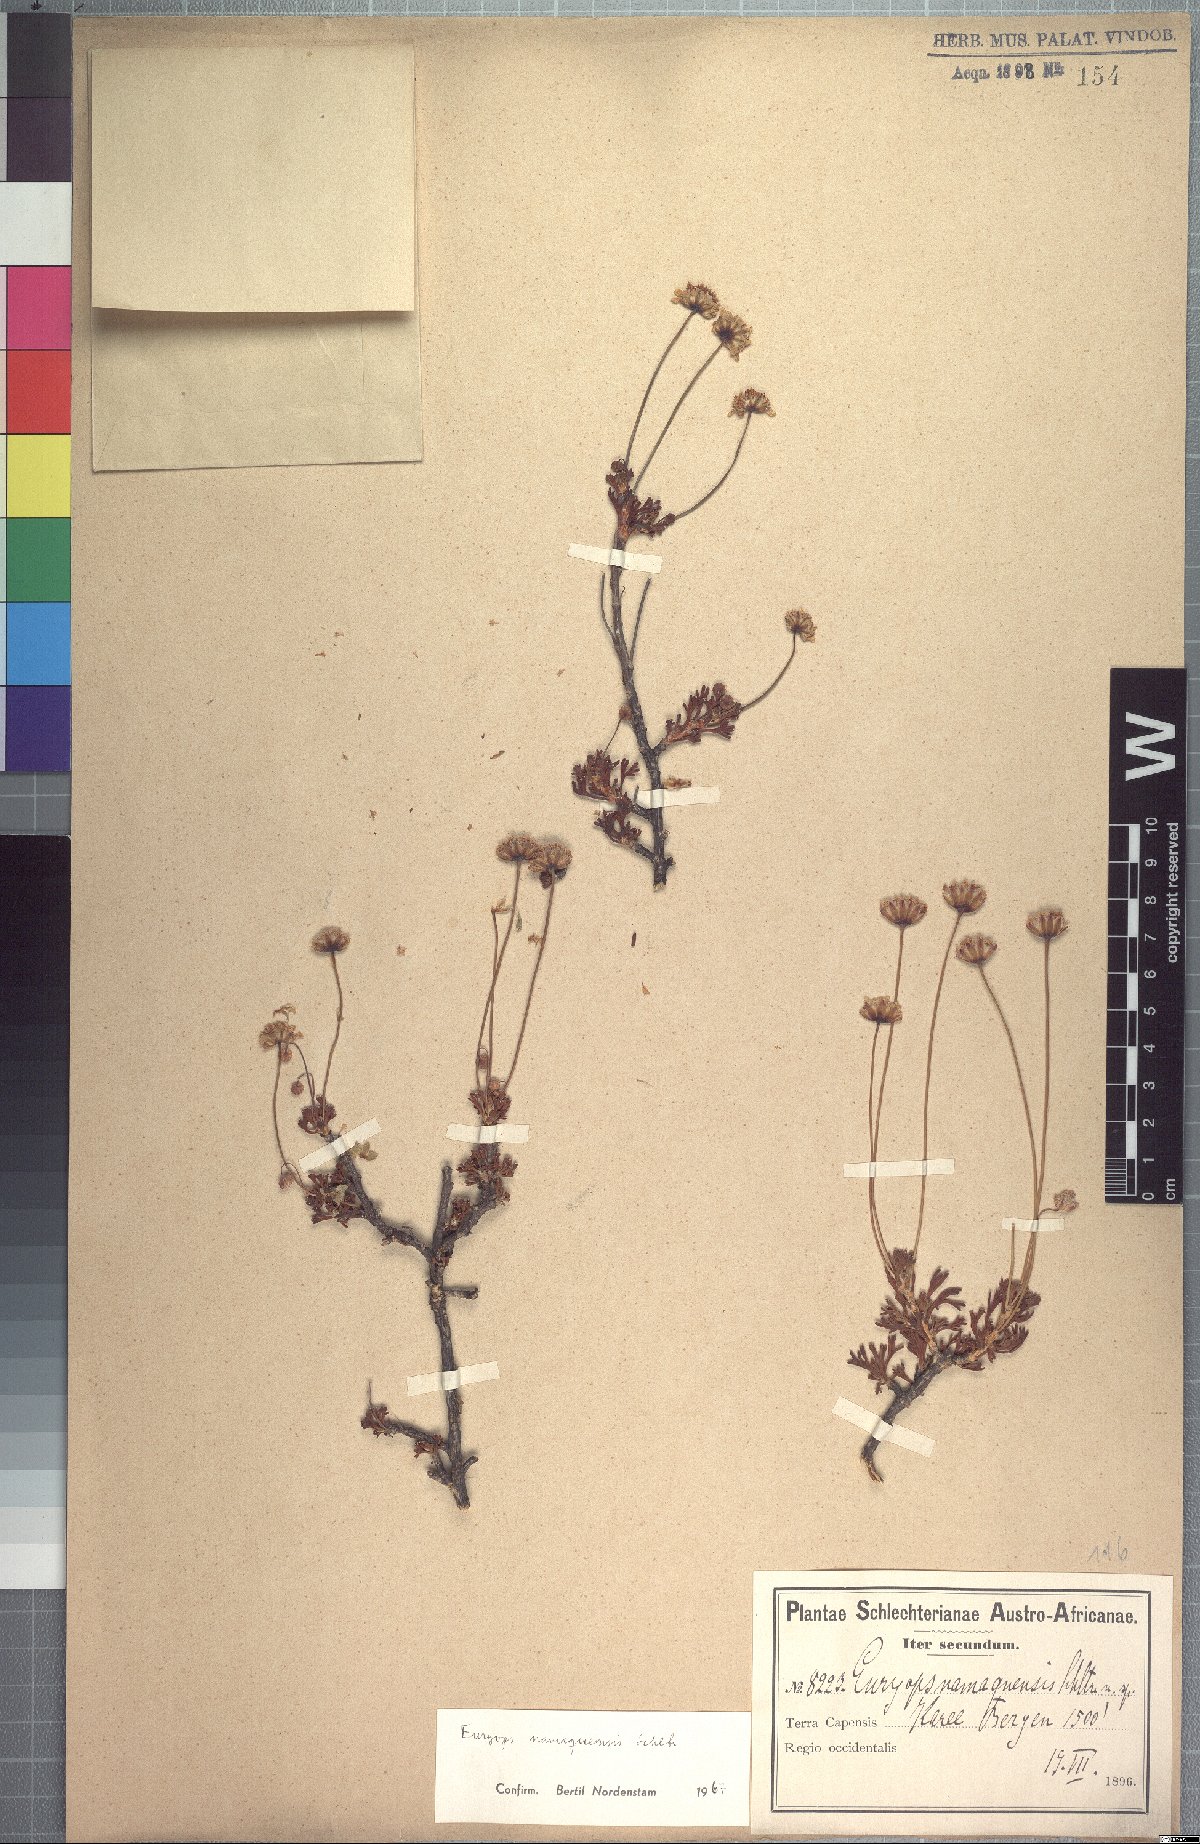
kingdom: Plantae
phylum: Tracheophyta
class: Magnoliopsida
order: Asterales
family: Asteraceae
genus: Euryops
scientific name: Euryops namaquensis
